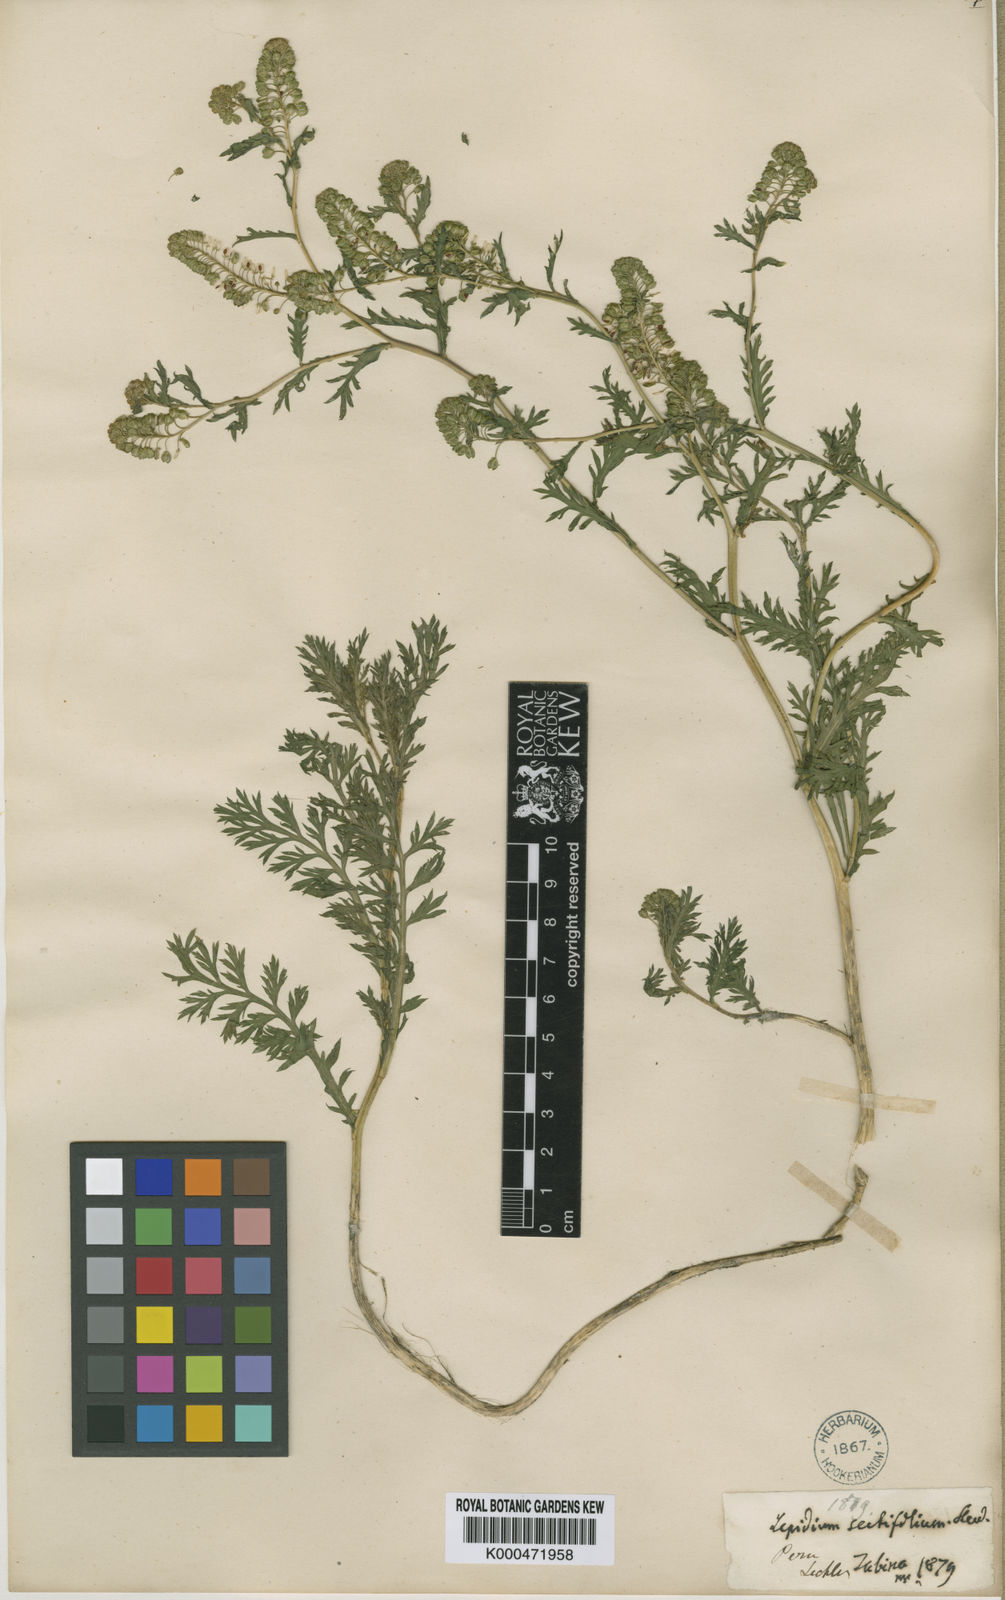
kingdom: Plantae
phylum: Tracheophyta
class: Magnoliopsida
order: Brassicales
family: Brassicaceae
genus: Lepidium
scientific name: Lepidium bipinnatifidum
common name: Wayside pepperwort
